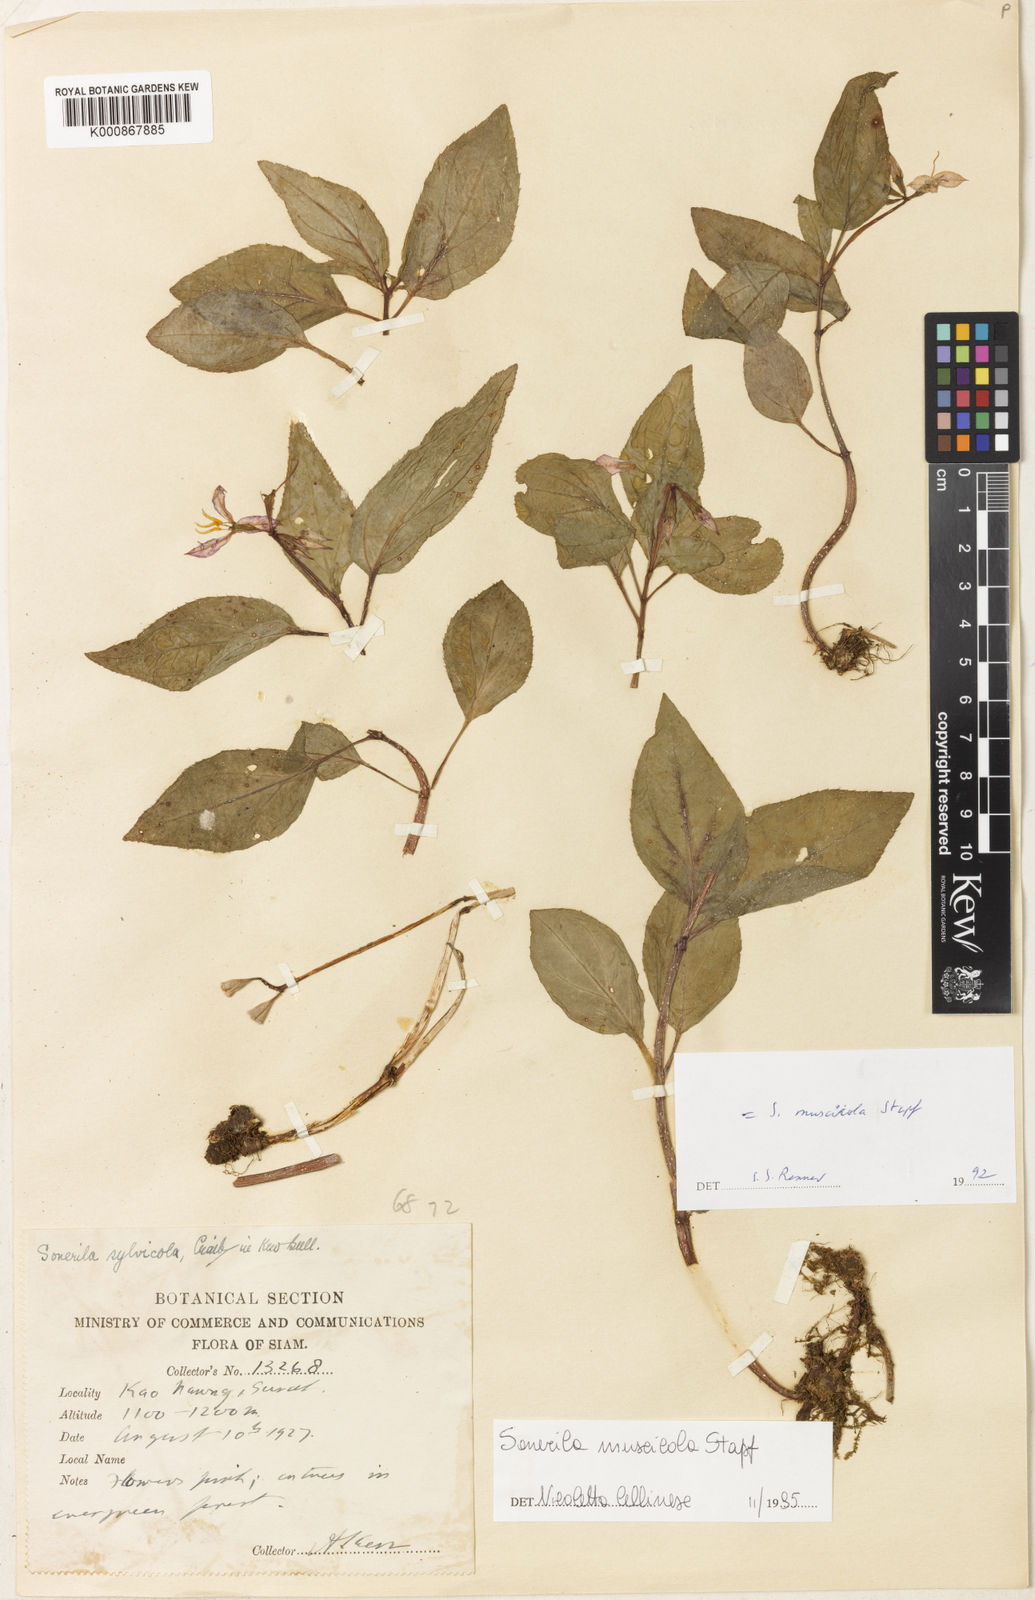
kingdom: Plantae
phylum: Tracheophyta
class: Magnoliopsida
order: Myrtales
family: Melastomataceae
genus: Sonerila
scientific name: Sonerila griffithii
